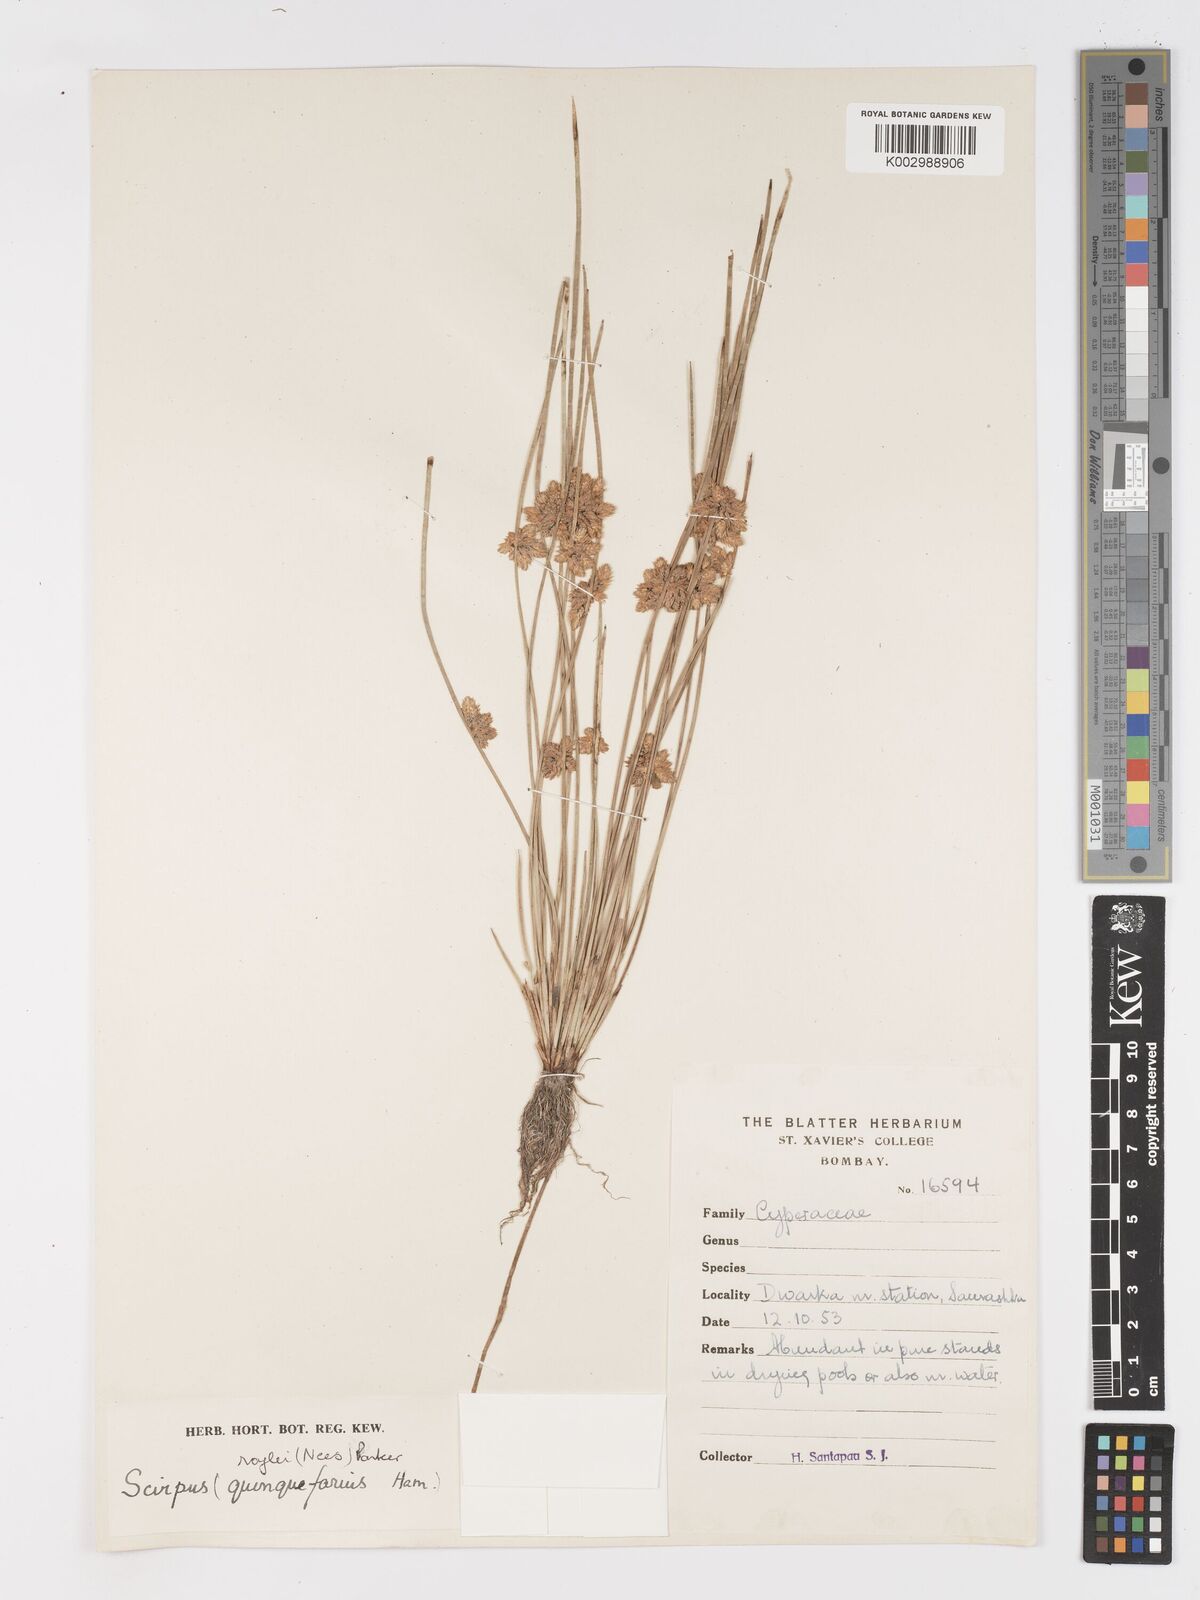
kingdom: Plantae
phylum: Tracheophyta
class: Liliopsida
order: Poales
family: Cyperaceae
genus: Schoenoplectiella
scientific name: Schoenoplectiella roylei
